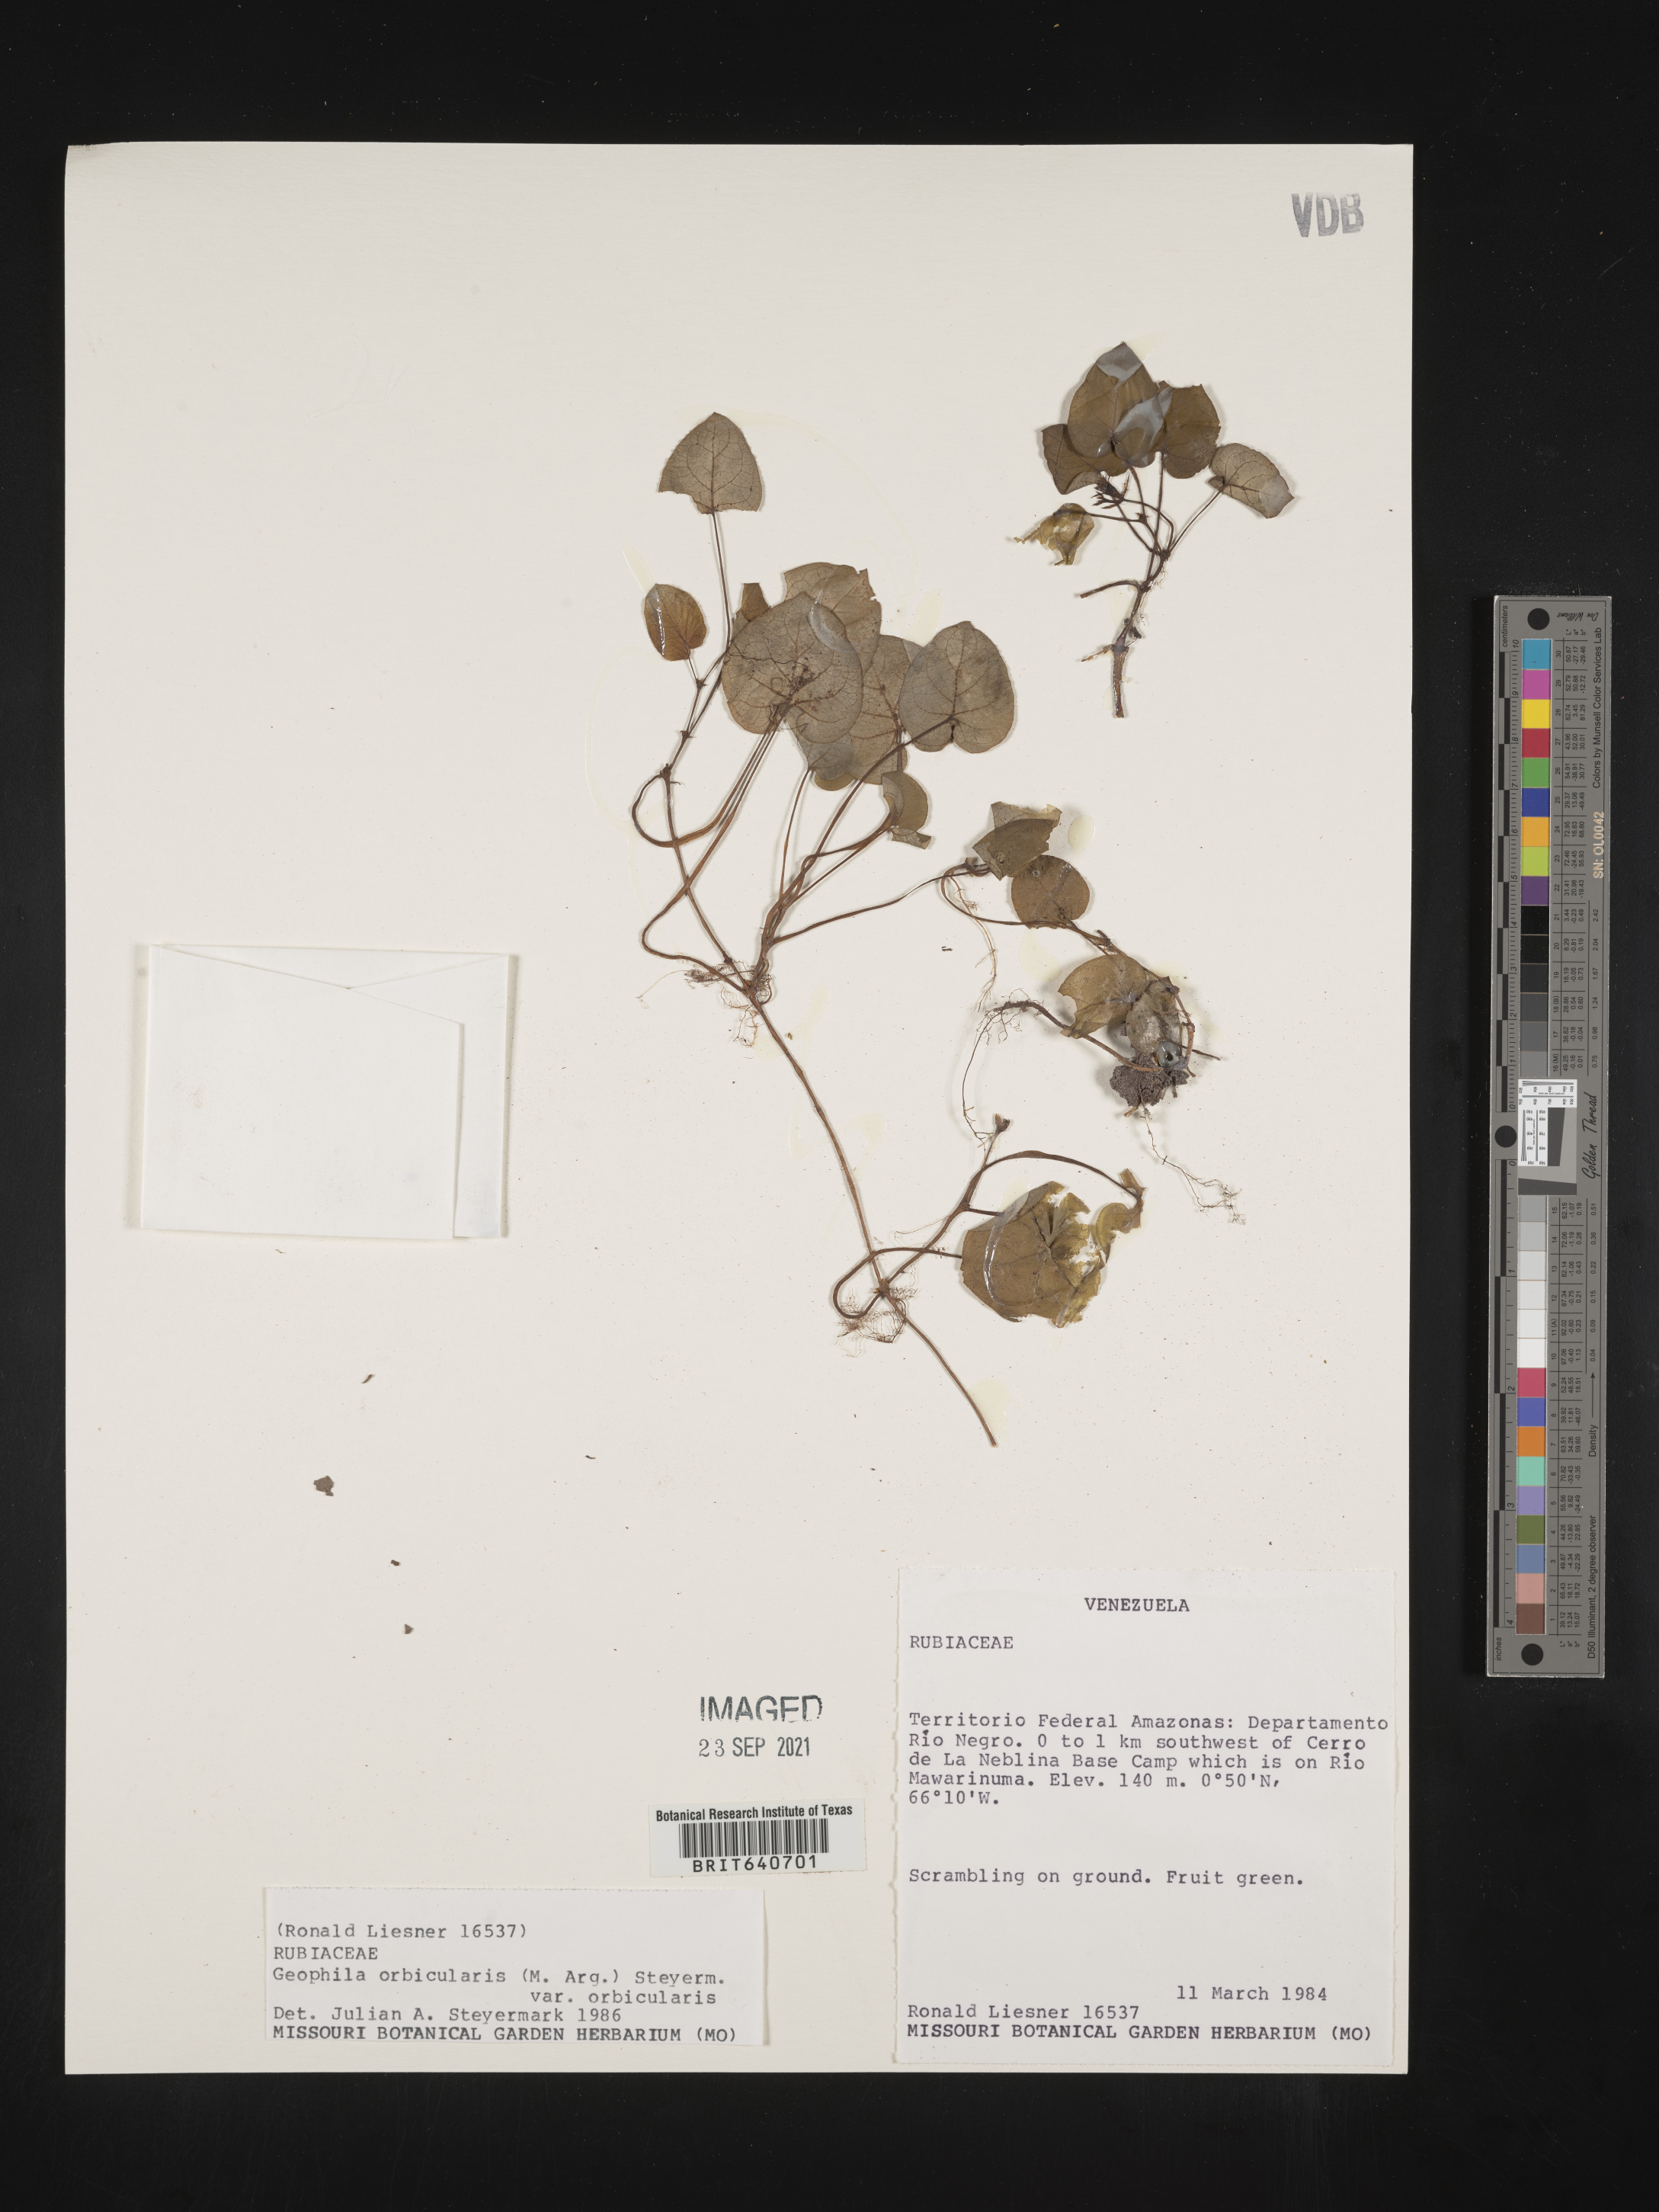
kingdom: Plantae
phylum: Tracheophyta
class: Magnoliopsida
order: Gentianales
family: Rubiaceae
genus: Geophila
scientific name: Geophila
